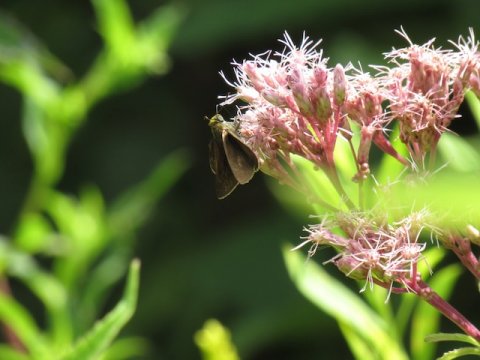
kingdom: Animalia
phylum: Arthropoda
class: Insecta
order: Lepidoptera
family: Hesperiidae
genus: Euphyes
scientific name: Euphyes vestris
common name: Dun Skipper
